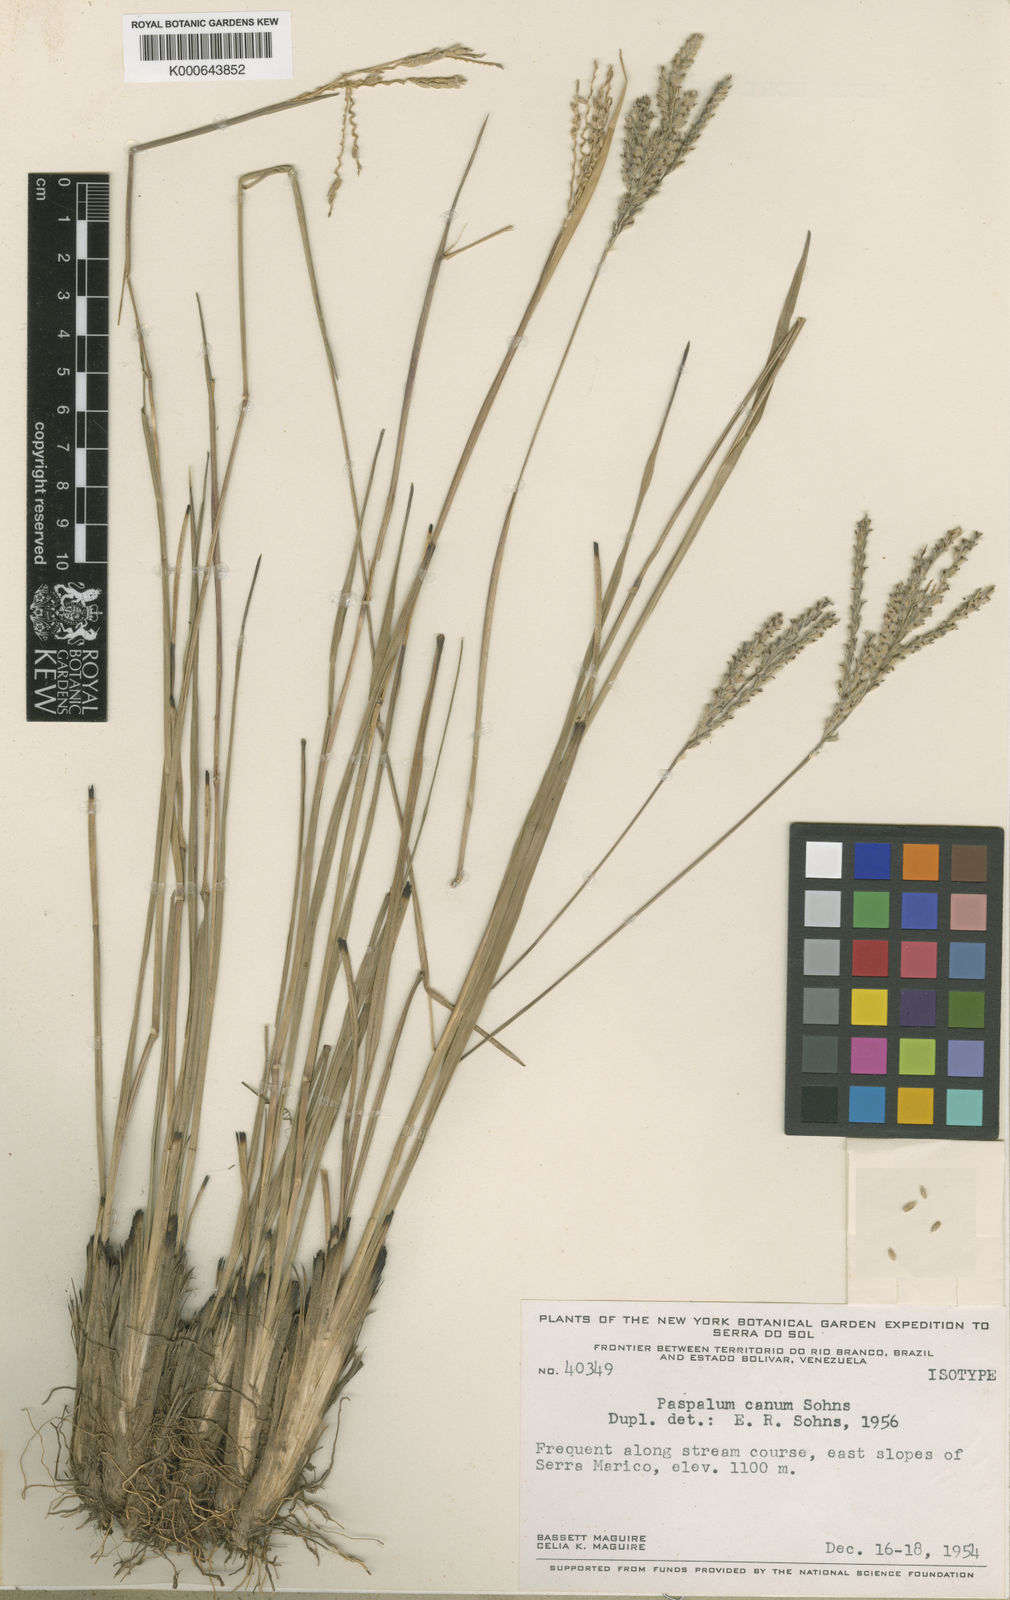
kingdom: Plantae
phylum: Tracheophyta
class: Liliopsida
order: Poales
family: Poaceae
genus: Paspalum
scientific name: Paspalum ammodes
